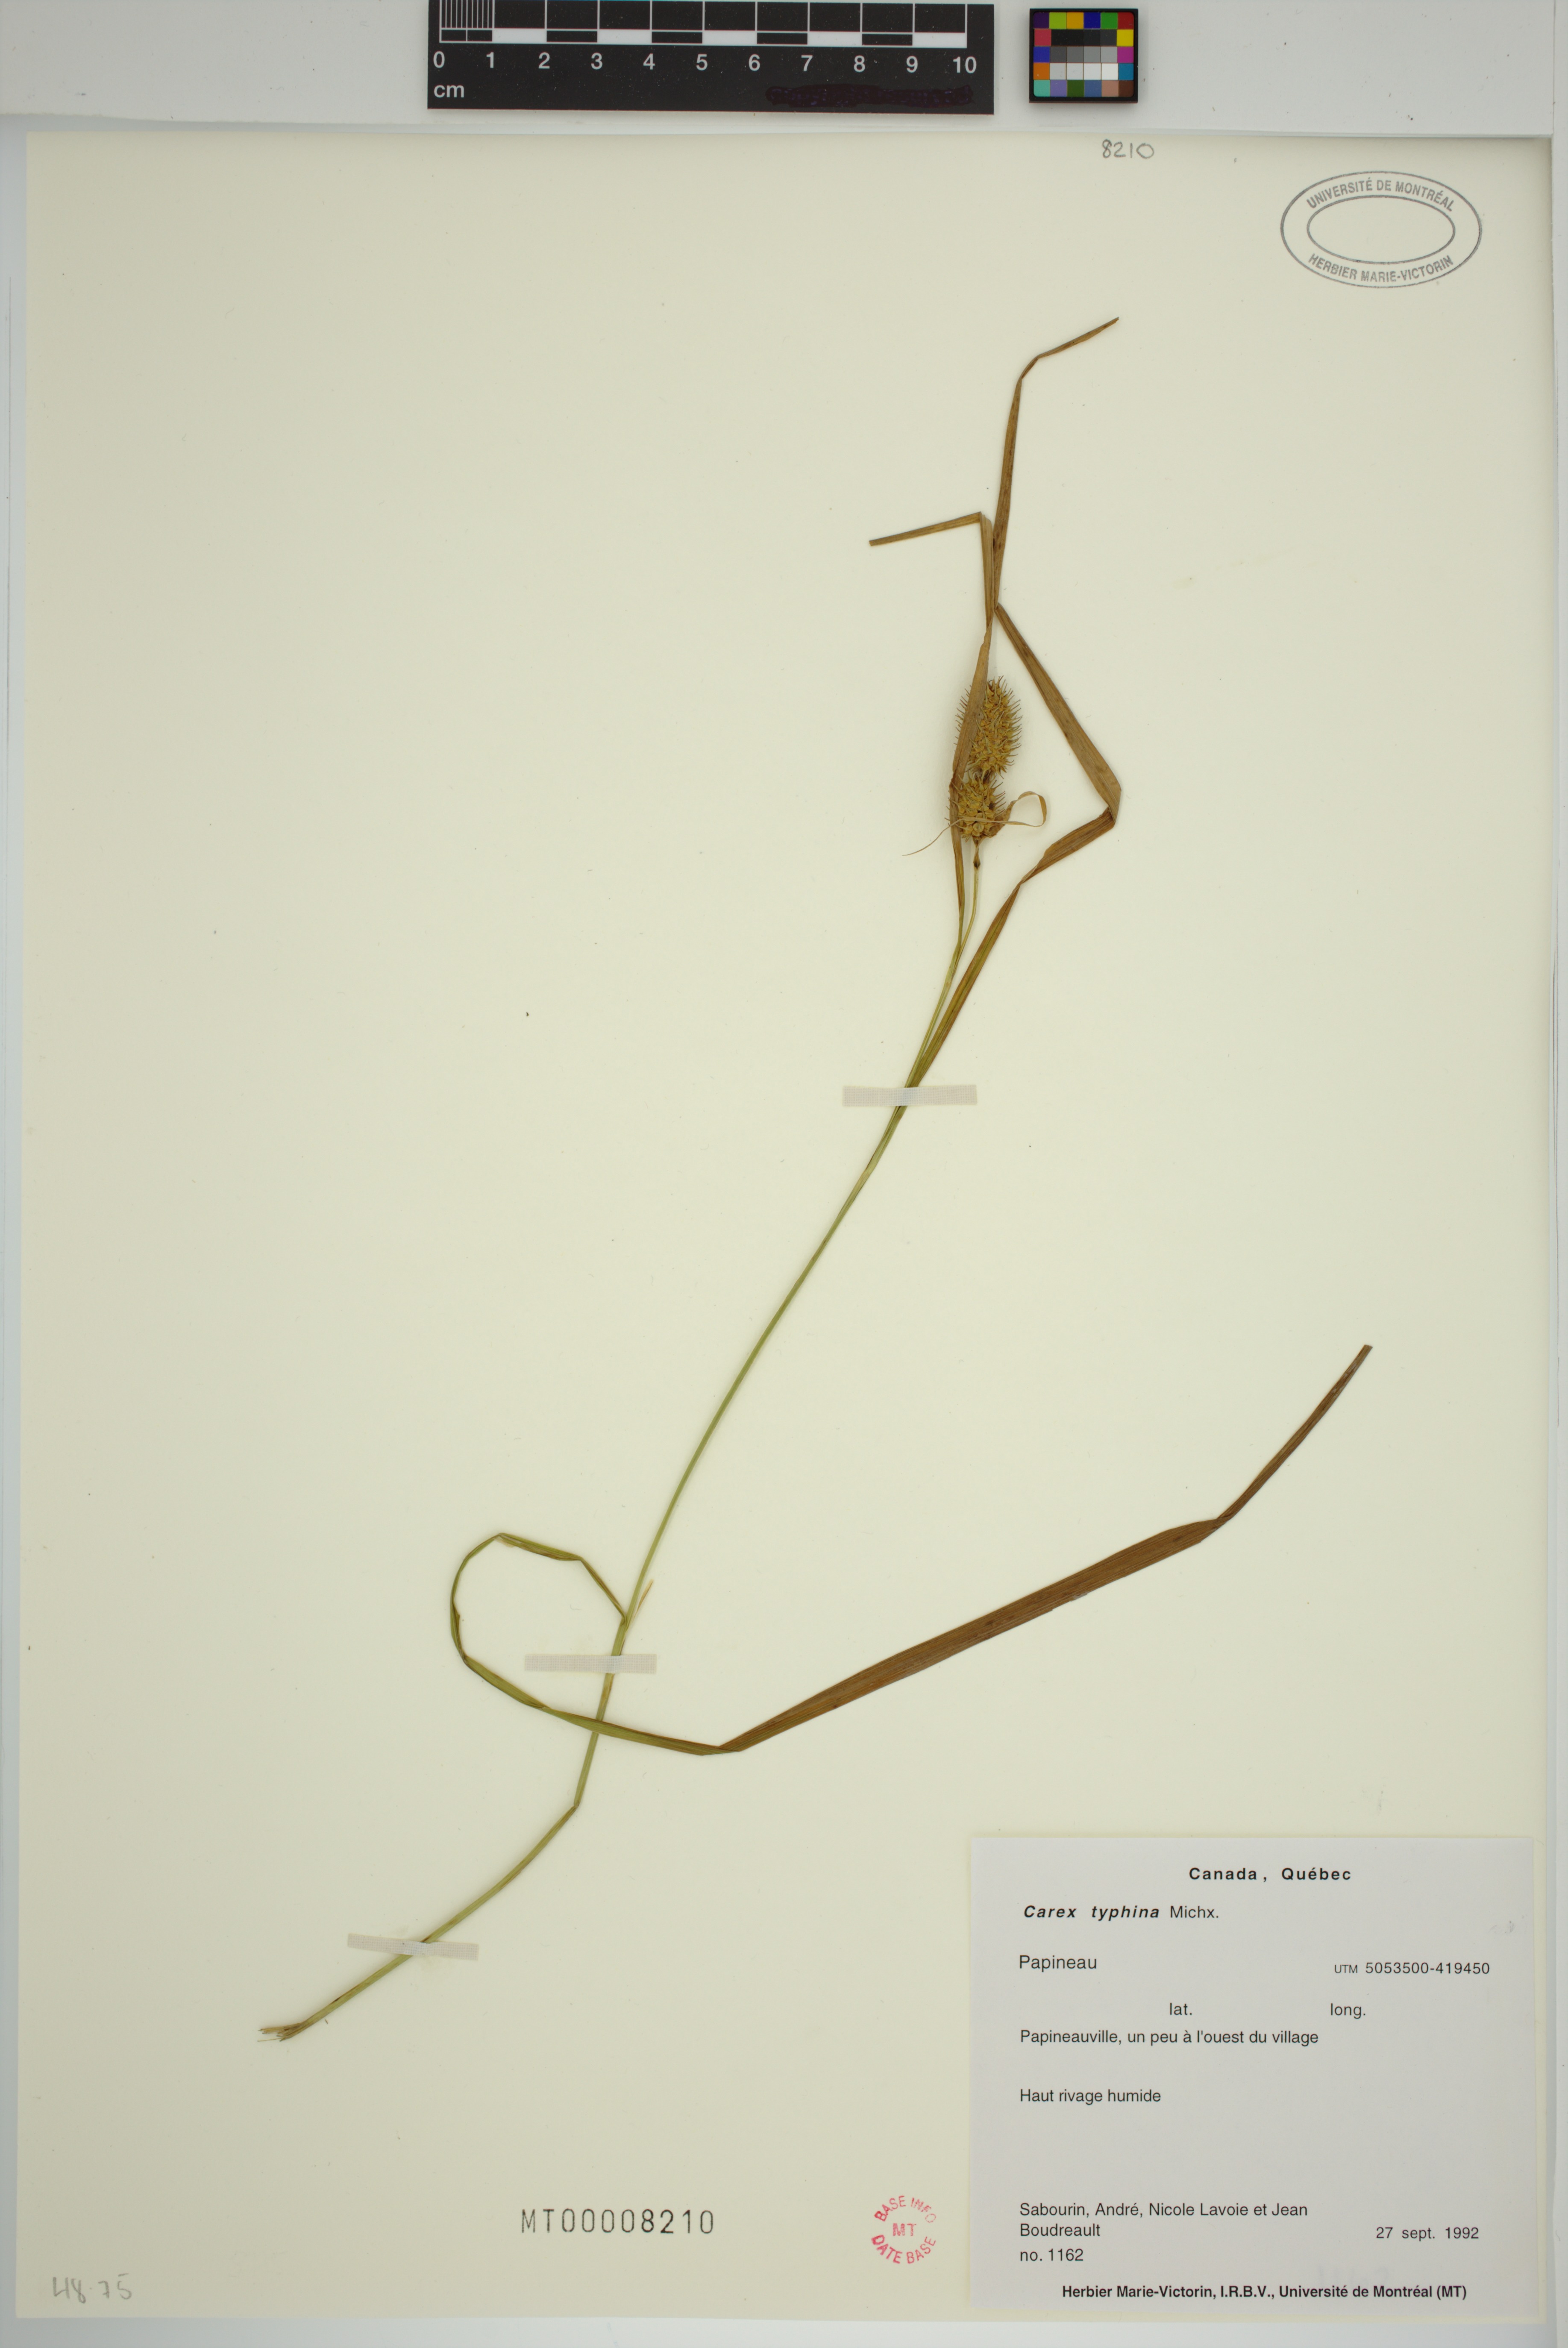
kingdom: Plantae
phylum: Tracheophyta
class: Liliopsida
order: Poales
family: Cyperaceae
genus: Carex
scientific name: Carex typhina
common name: Cattail sedge
